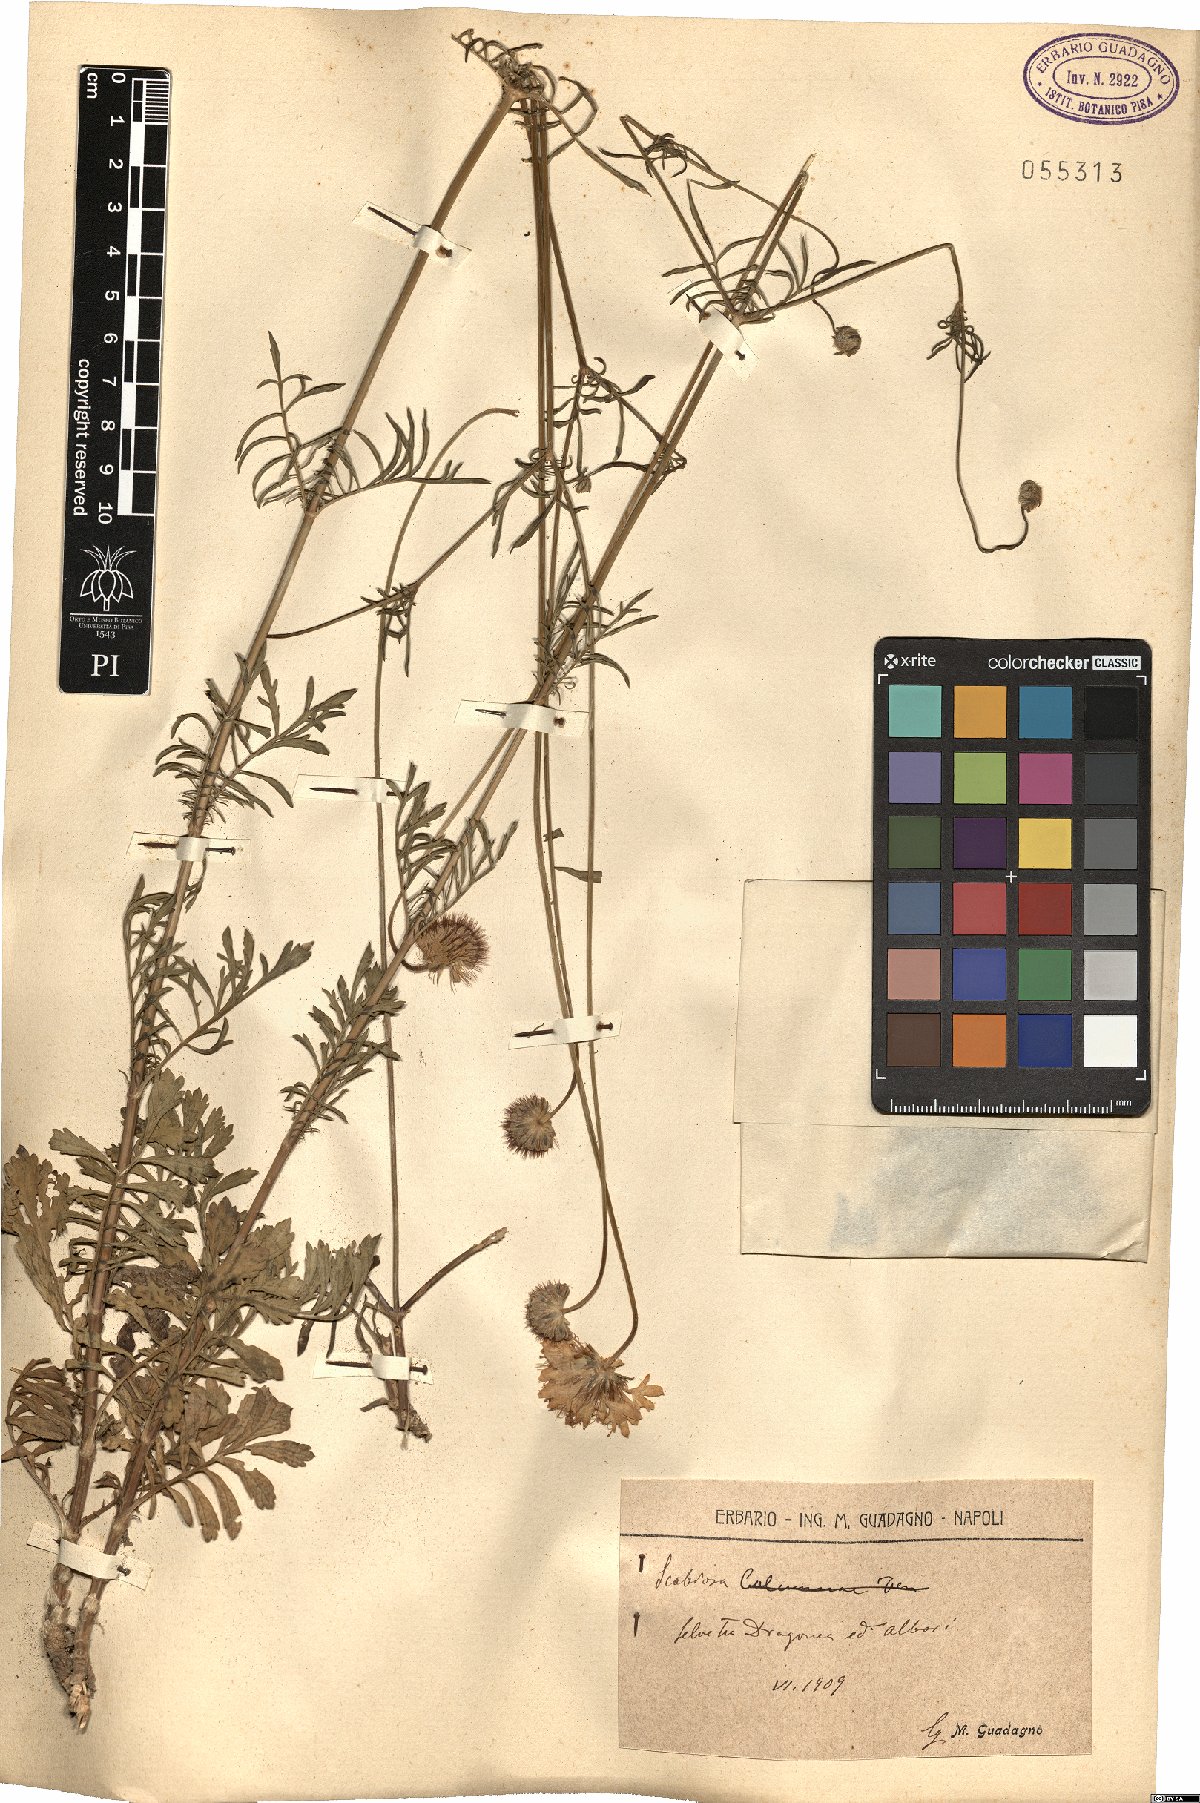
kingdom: Plantae
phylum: Tracheophyta
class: Magnoliopsida
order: Dipsacales
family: Caprifoliaceae
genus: Scabiosa
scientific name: Scabiosa
